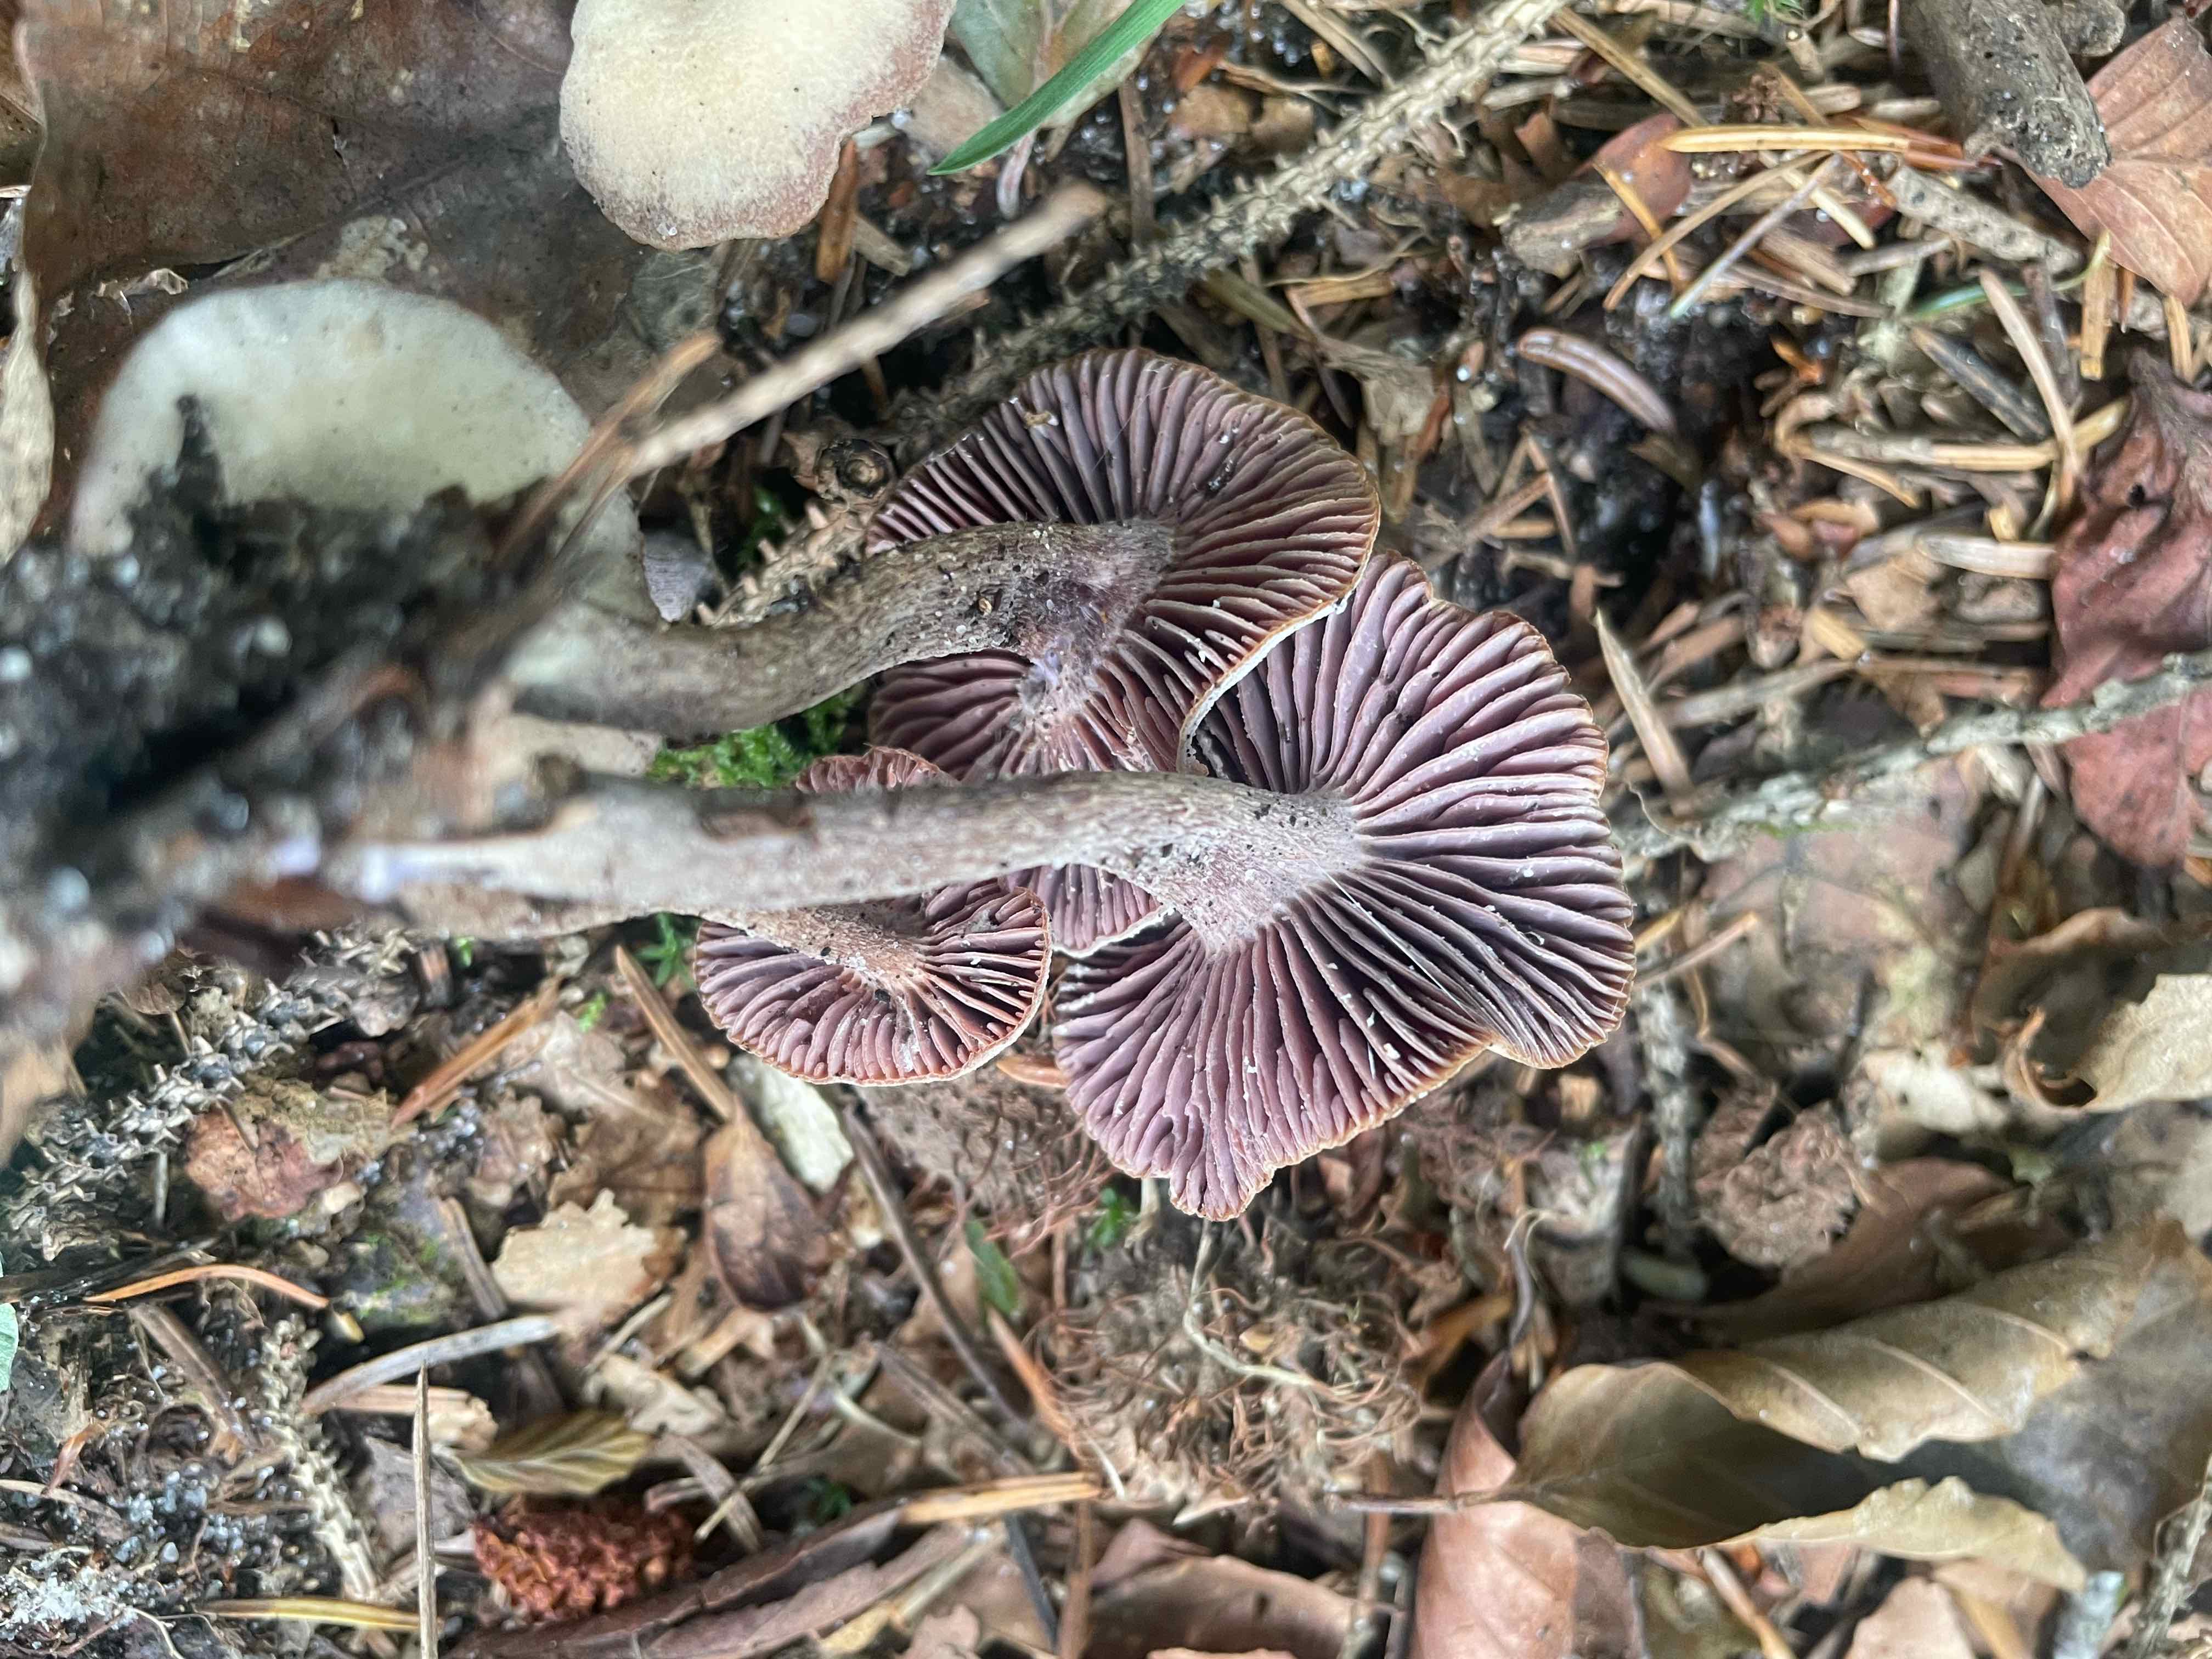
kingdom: Fungi
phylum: Basidiomycota
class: Agaricomycetes
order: Agaricales
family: Hydnangiaceae
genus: Laccaria
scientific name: Laccaria amethystina
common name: violet ametysthat
